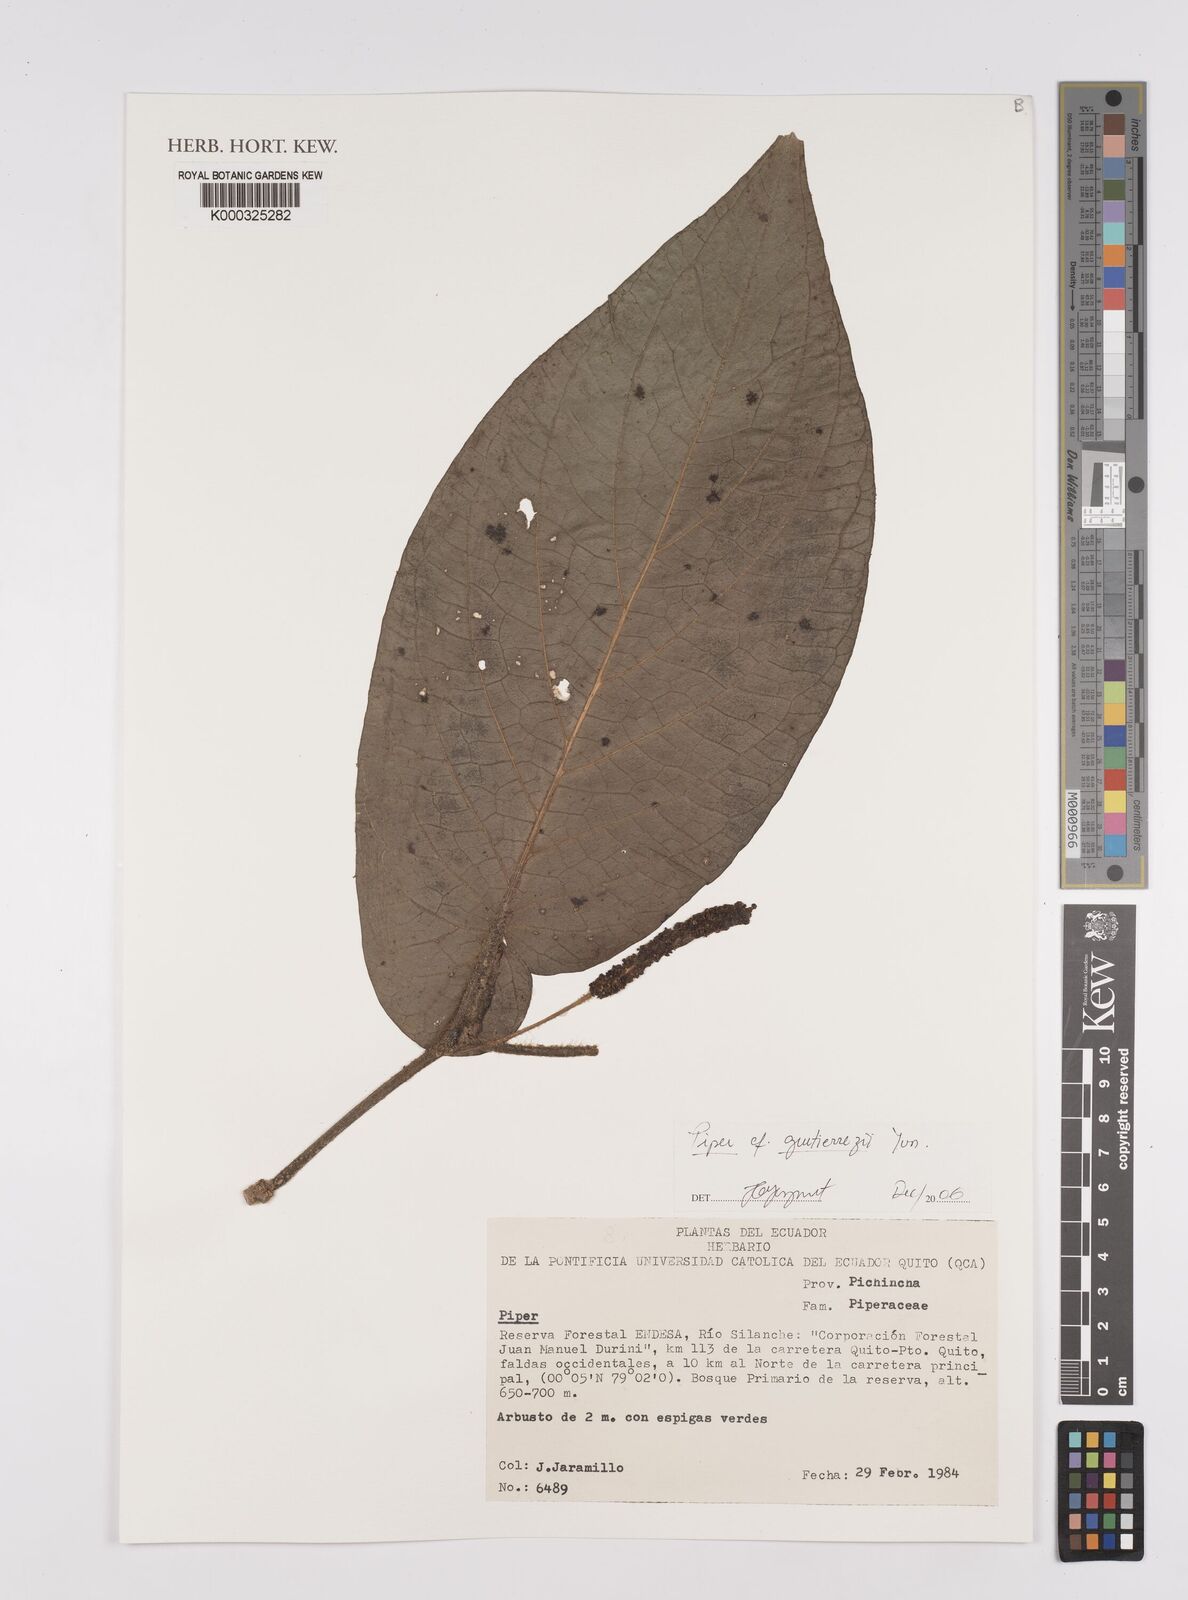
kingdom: Plantae
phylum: Tracheophyta
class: Magnoliopsida
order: Piperales
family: Piperaceae
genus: Piper
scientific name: Piper gutierrezii
